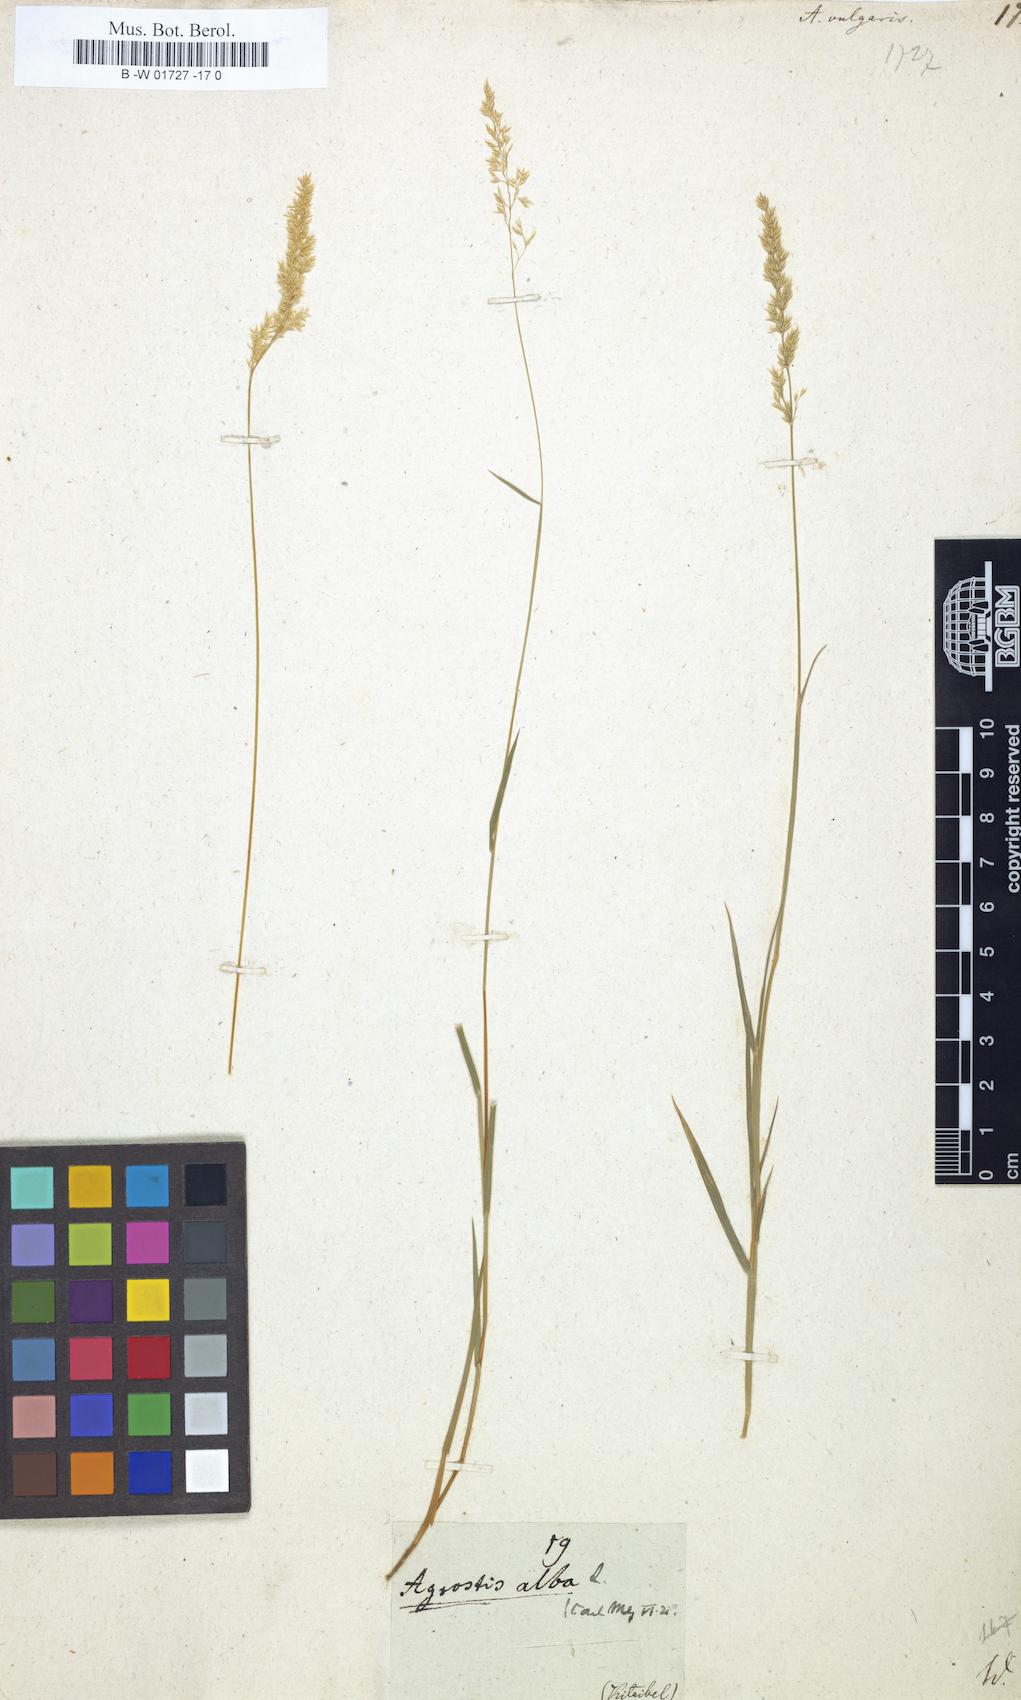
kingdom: Plantae
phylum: Tracheophyta
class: Liliopsida
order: Poales
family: Poaceae
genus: Agrostis
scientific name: Agrostis capillaris
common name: Colonial bentgrass
